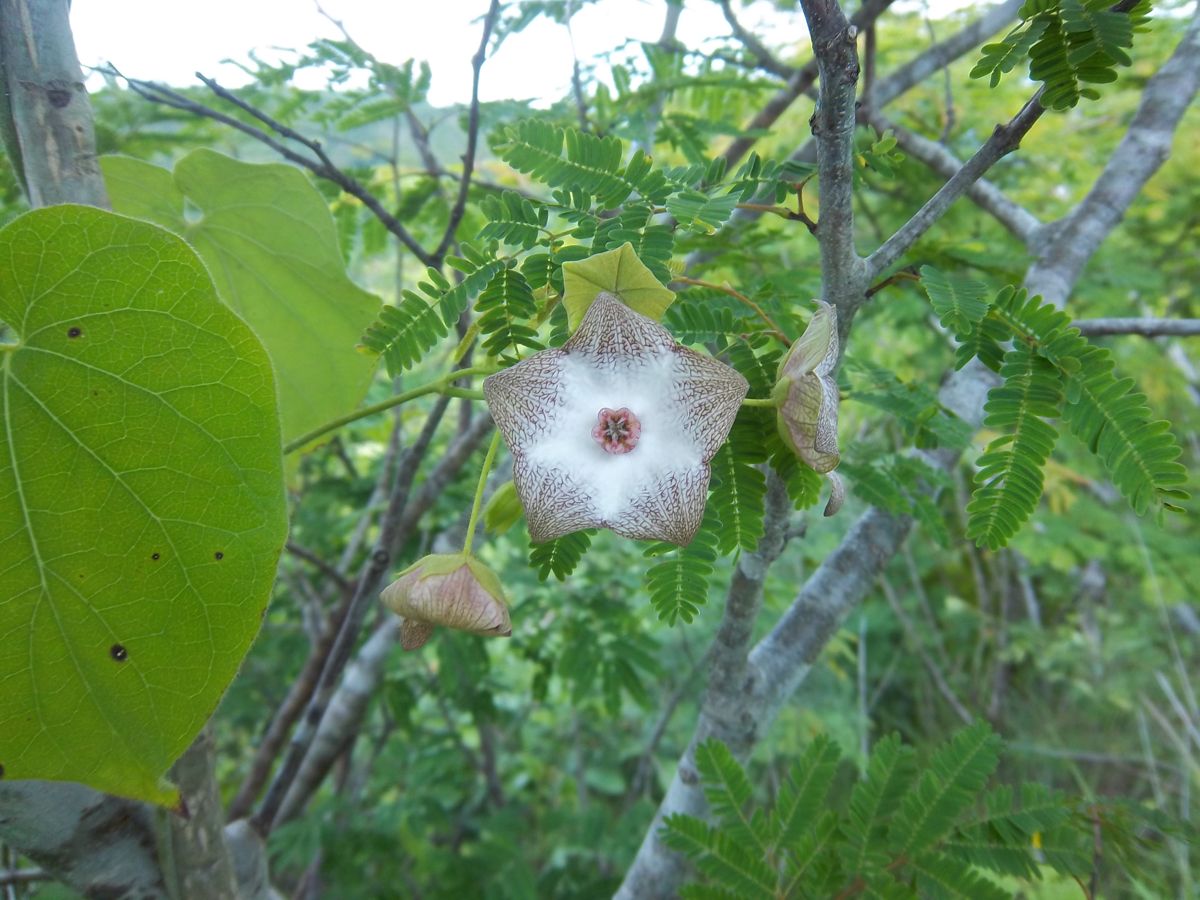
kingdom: Plantae
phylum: Tracheophyta
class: Magnoliopsida
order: Gentianales
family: Apocynaceae
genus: Polystemma
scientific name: Polystemma guatemalense
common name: Arborescente rattan
